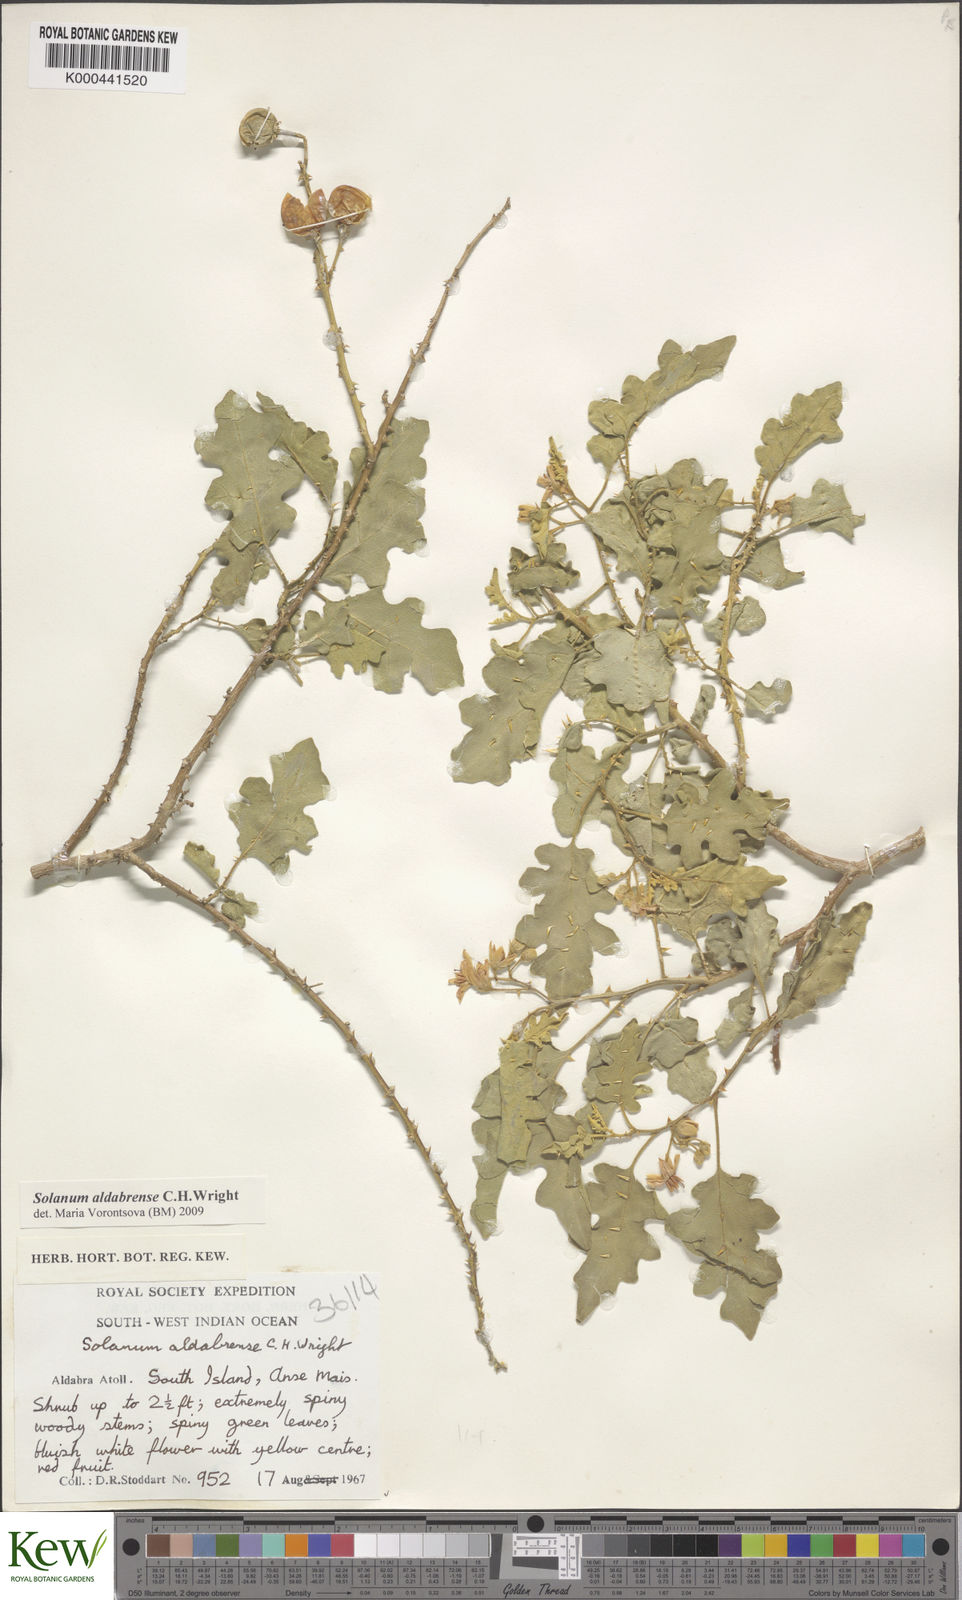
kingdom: Plantae
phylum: Tracheophyta
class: Magnoliopsida
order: Solanales
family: Solanaceae
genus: Solanum
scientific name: Solanum aldabrense
